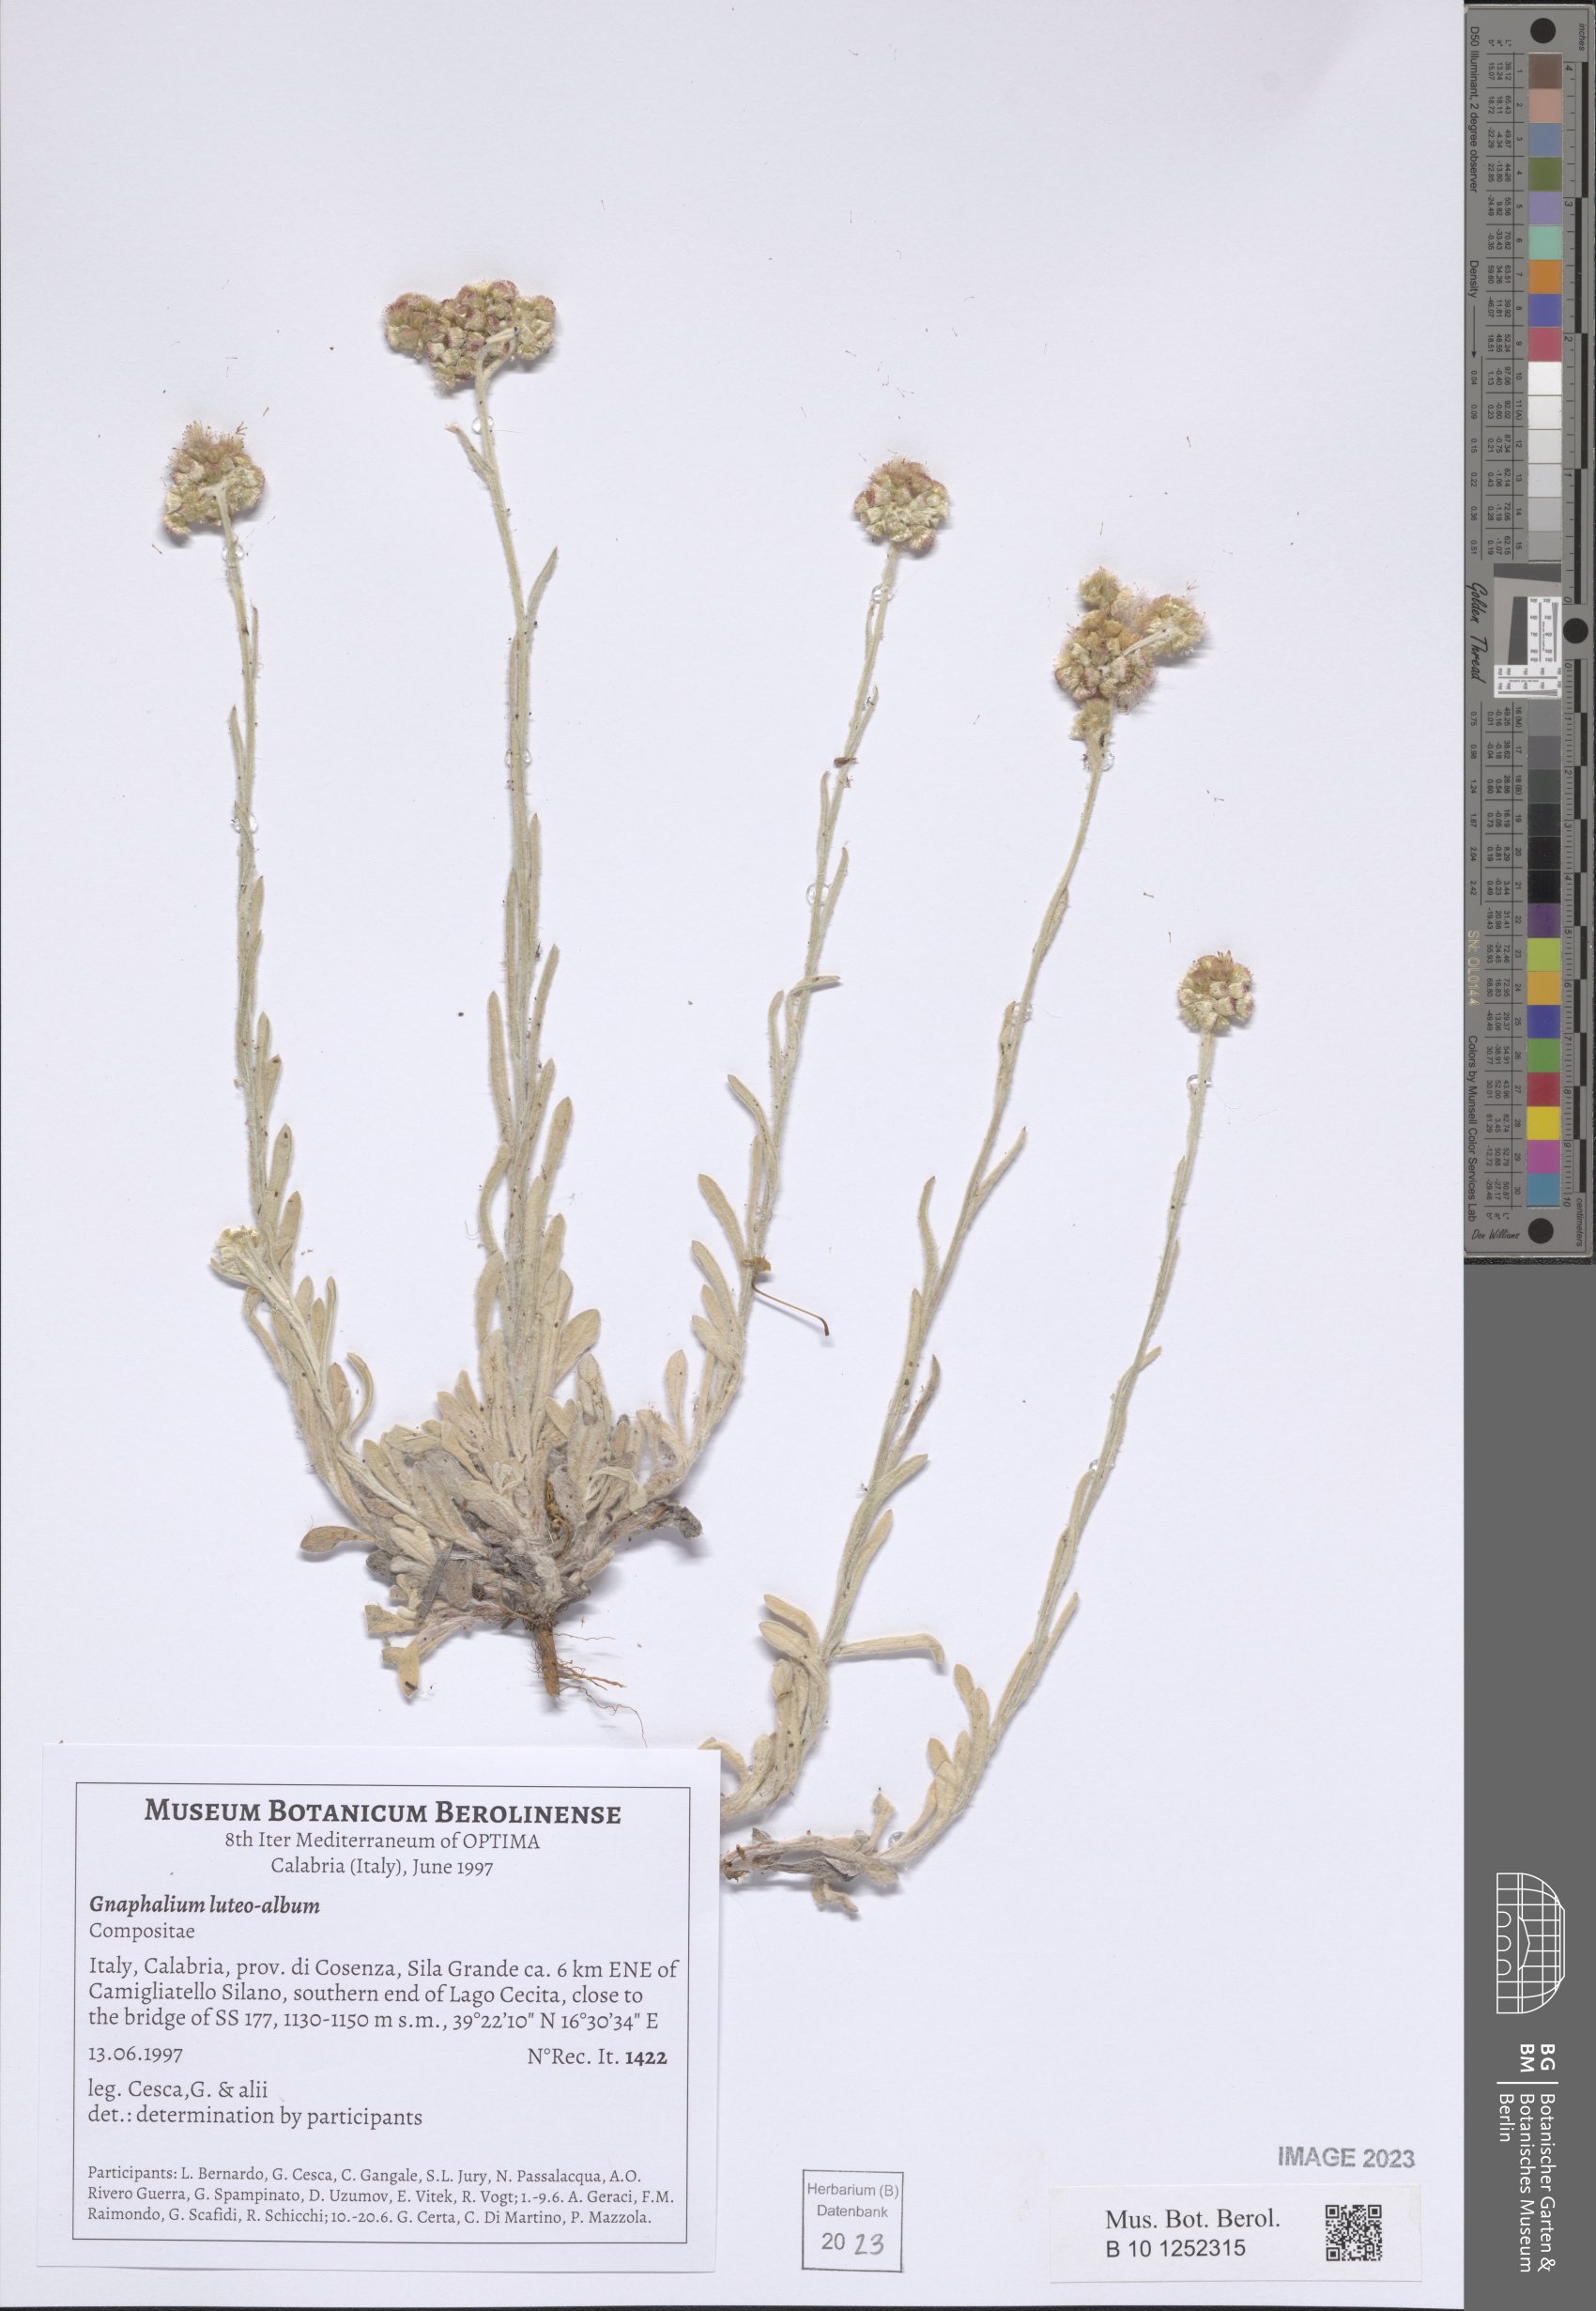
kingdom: Plantae
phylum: Tracheophyta
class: Magnoliopsida
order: Asterales
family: Asteraceae
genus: Helichrysum
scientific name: Helichrysum luteoalbum
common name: Daisy
